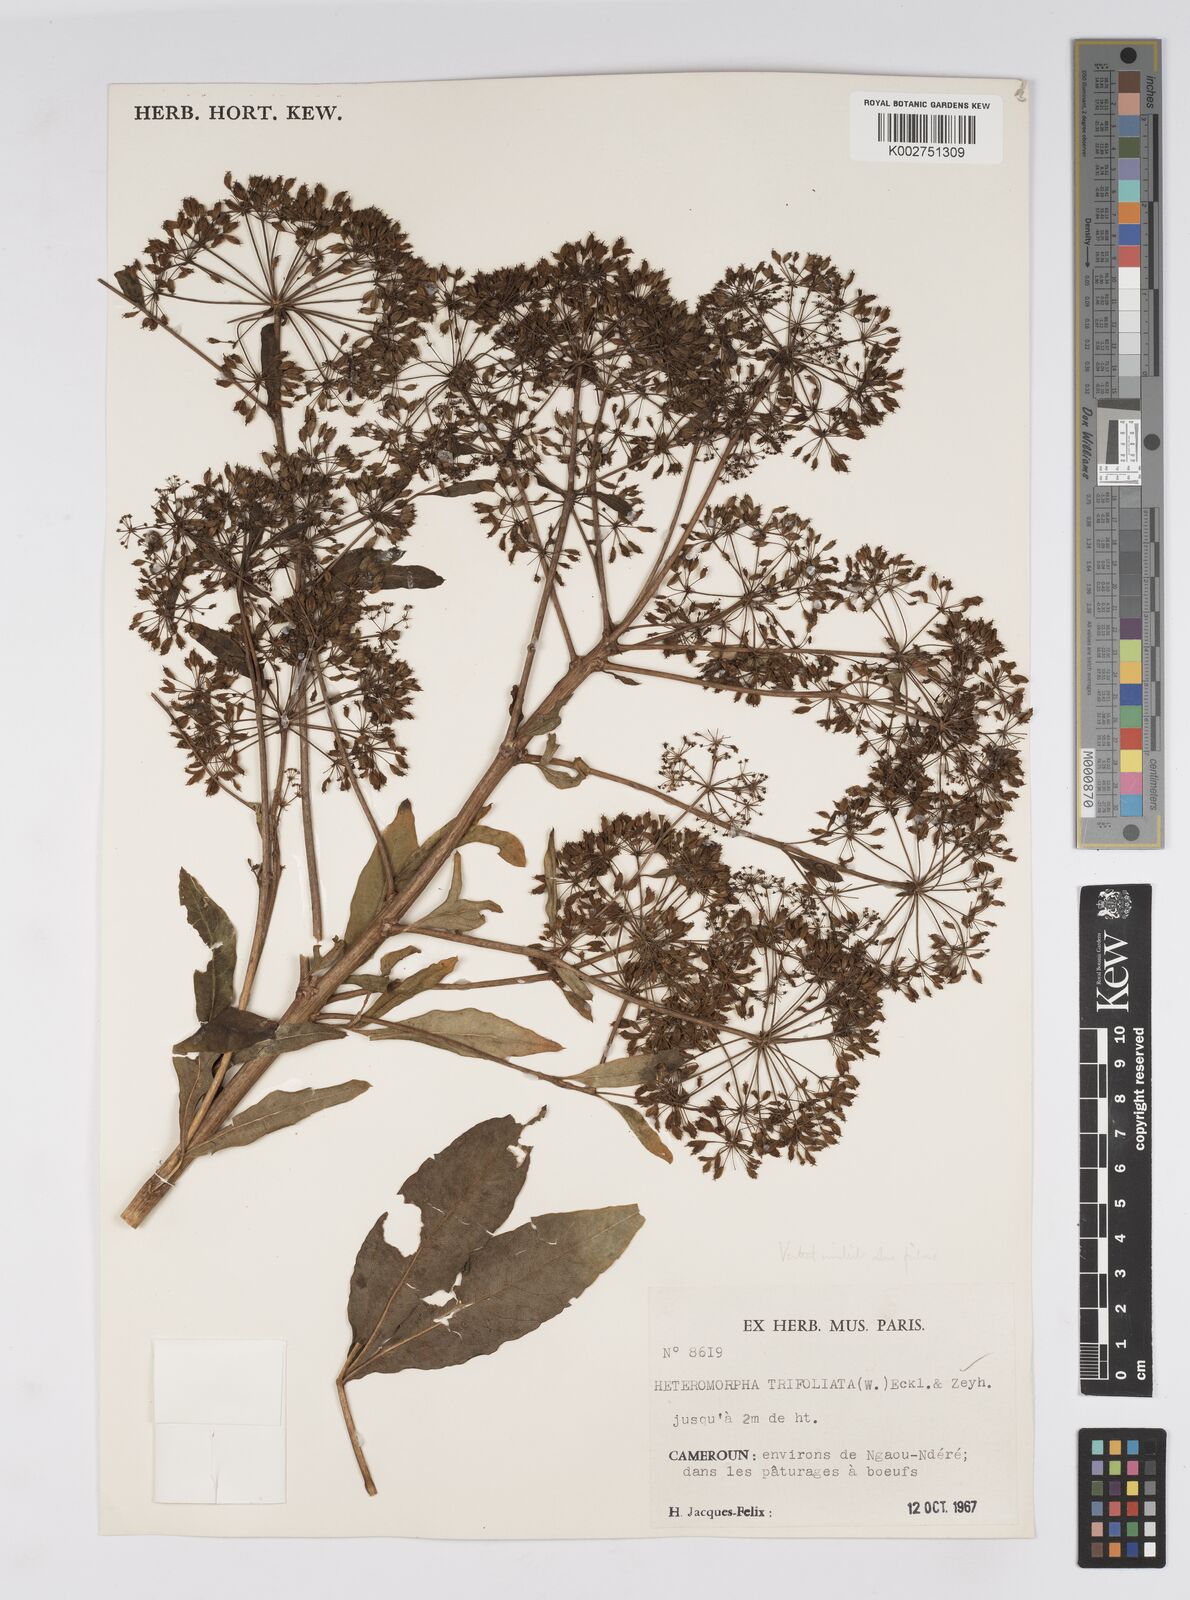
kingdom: Plantae
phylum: Tracheophyta
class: Magnoliopsida
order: Apiales
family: Apiaceae
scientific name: Apiaceae
